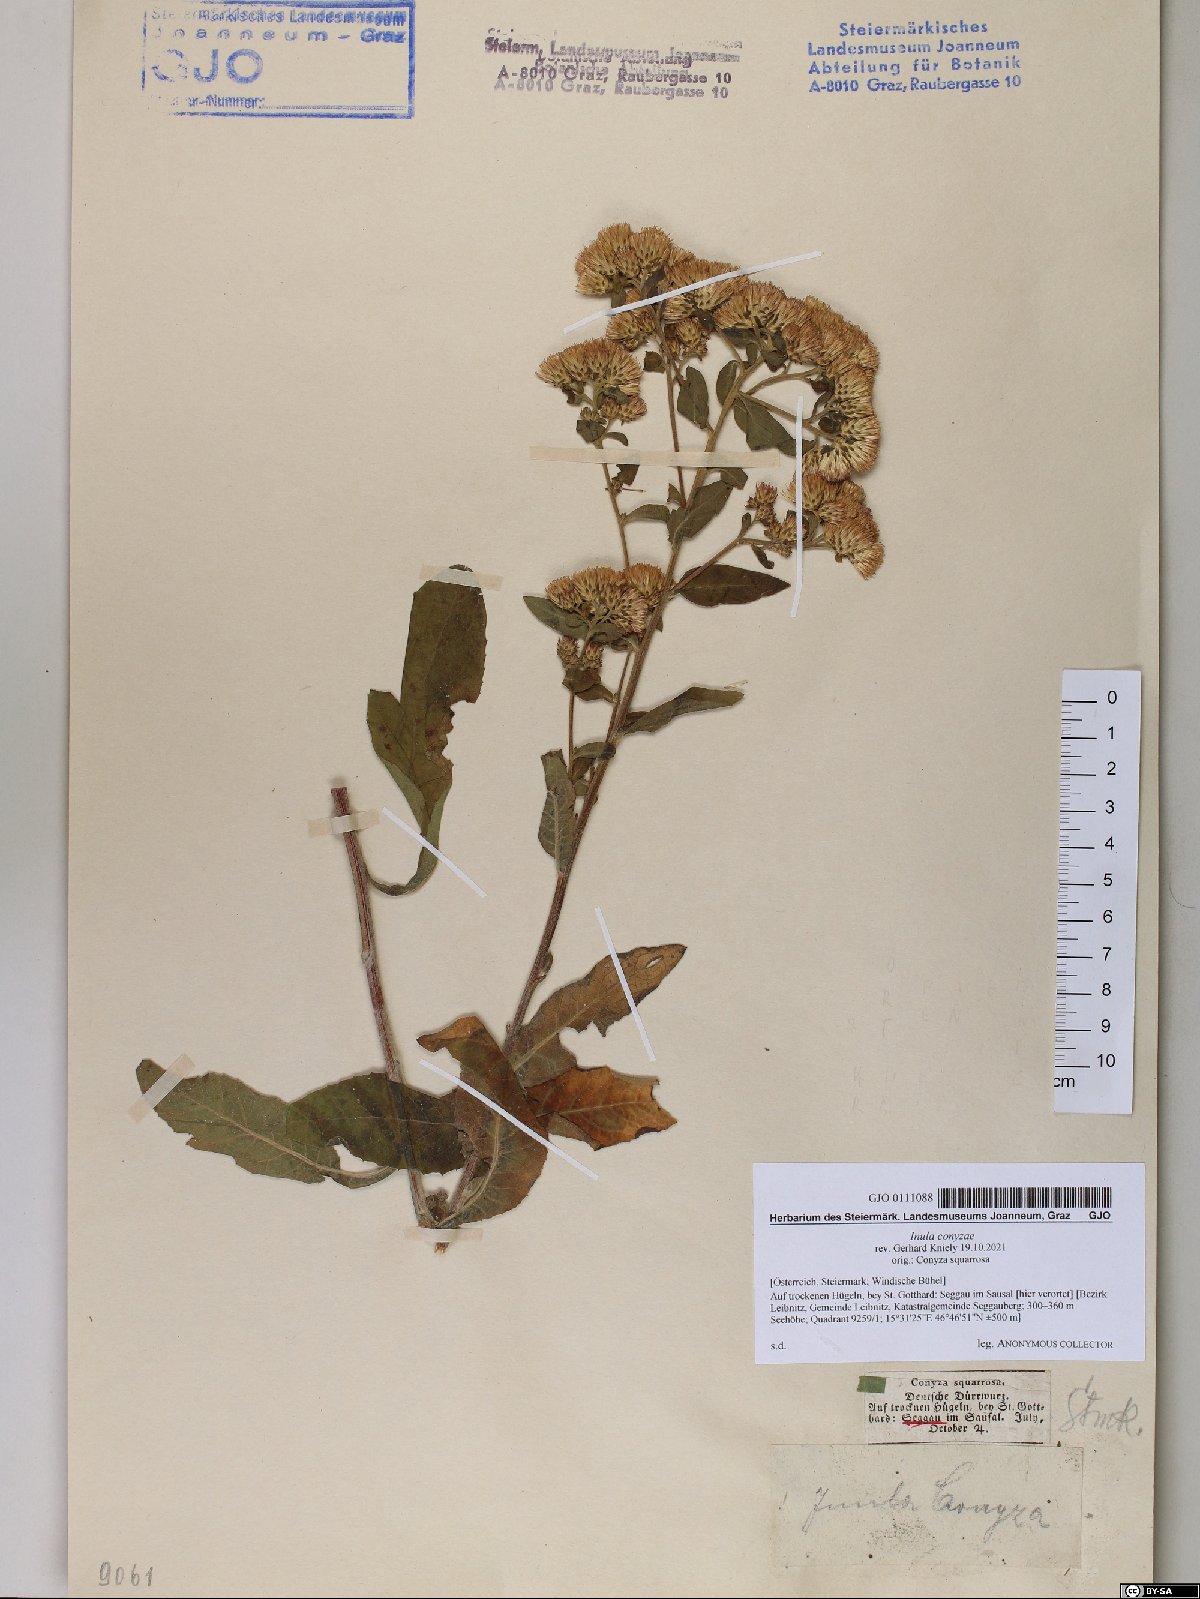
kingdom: Plantae
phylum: Tracheophyta
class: Magnoliopsida
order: Asterales
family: Asteraceae
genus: Pentanema
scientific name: Pentanema squarrosum
